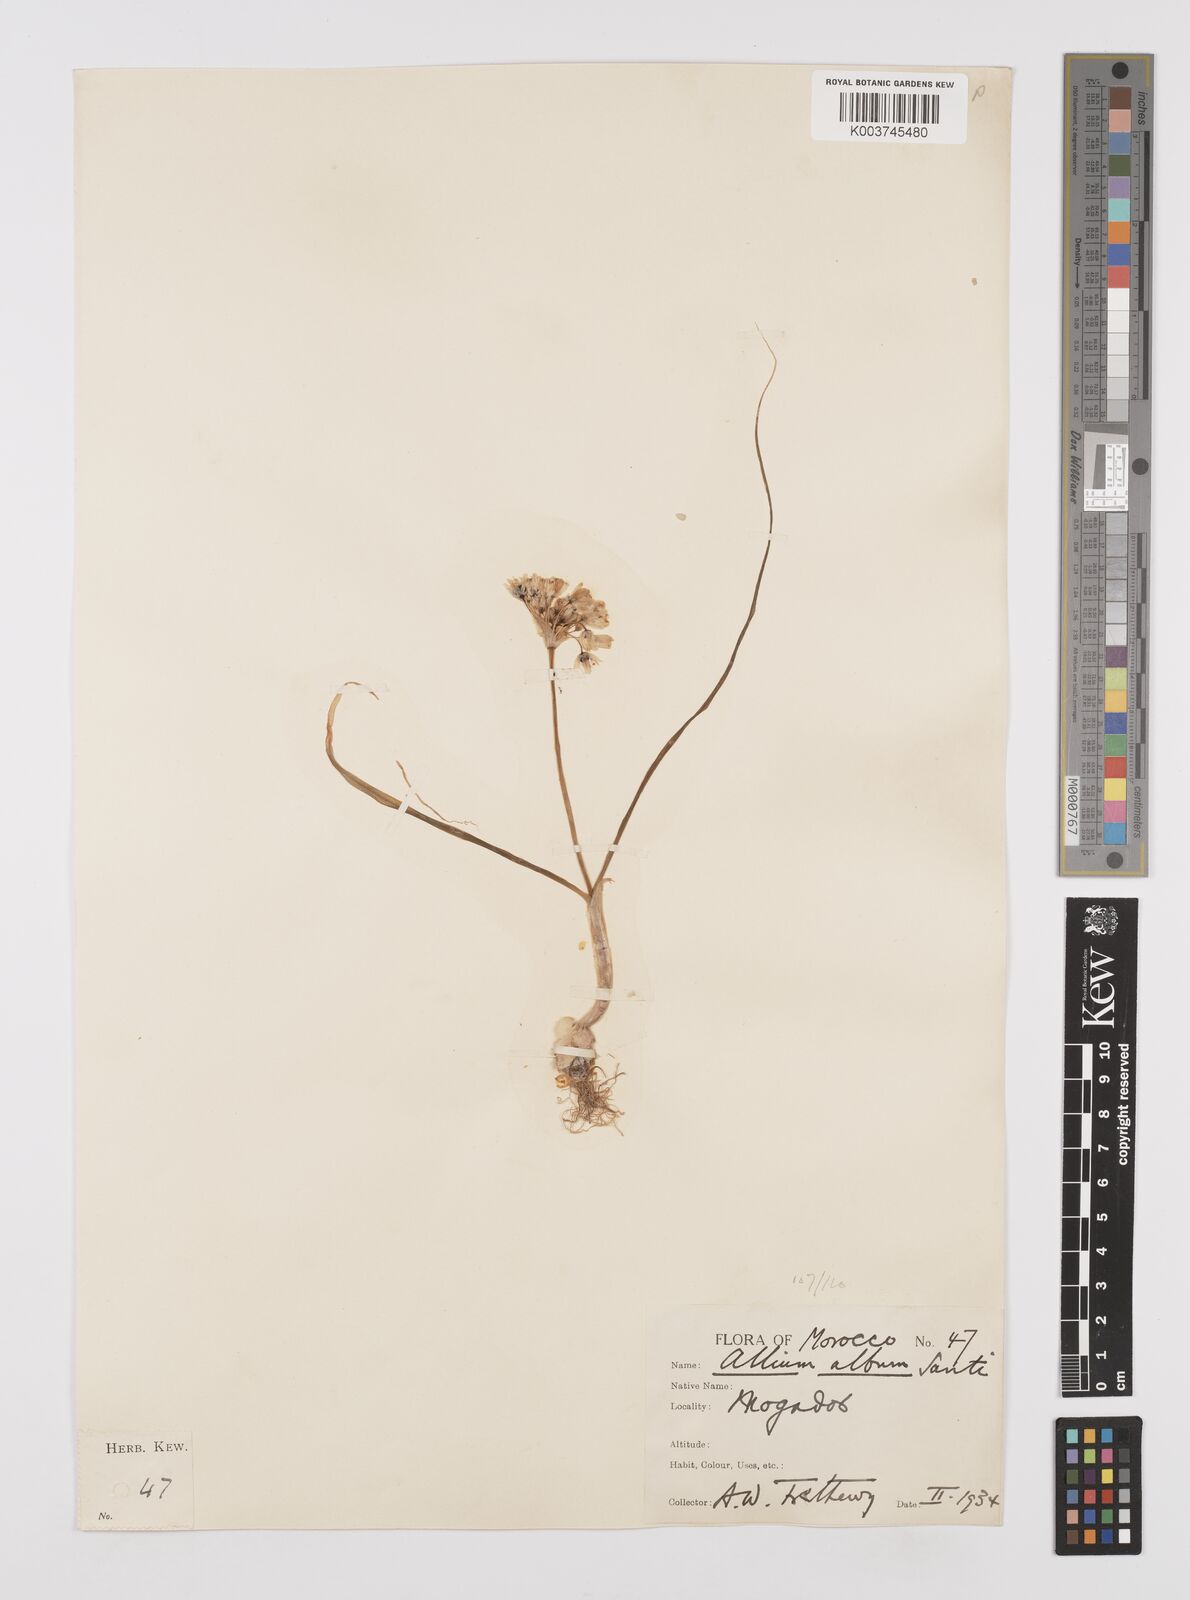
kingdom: Plantae
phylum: Tracheophyta
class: Liliopsida
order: Asparagales
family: Amaryllidaceae
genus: Allium
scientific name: Allium subvillosum
